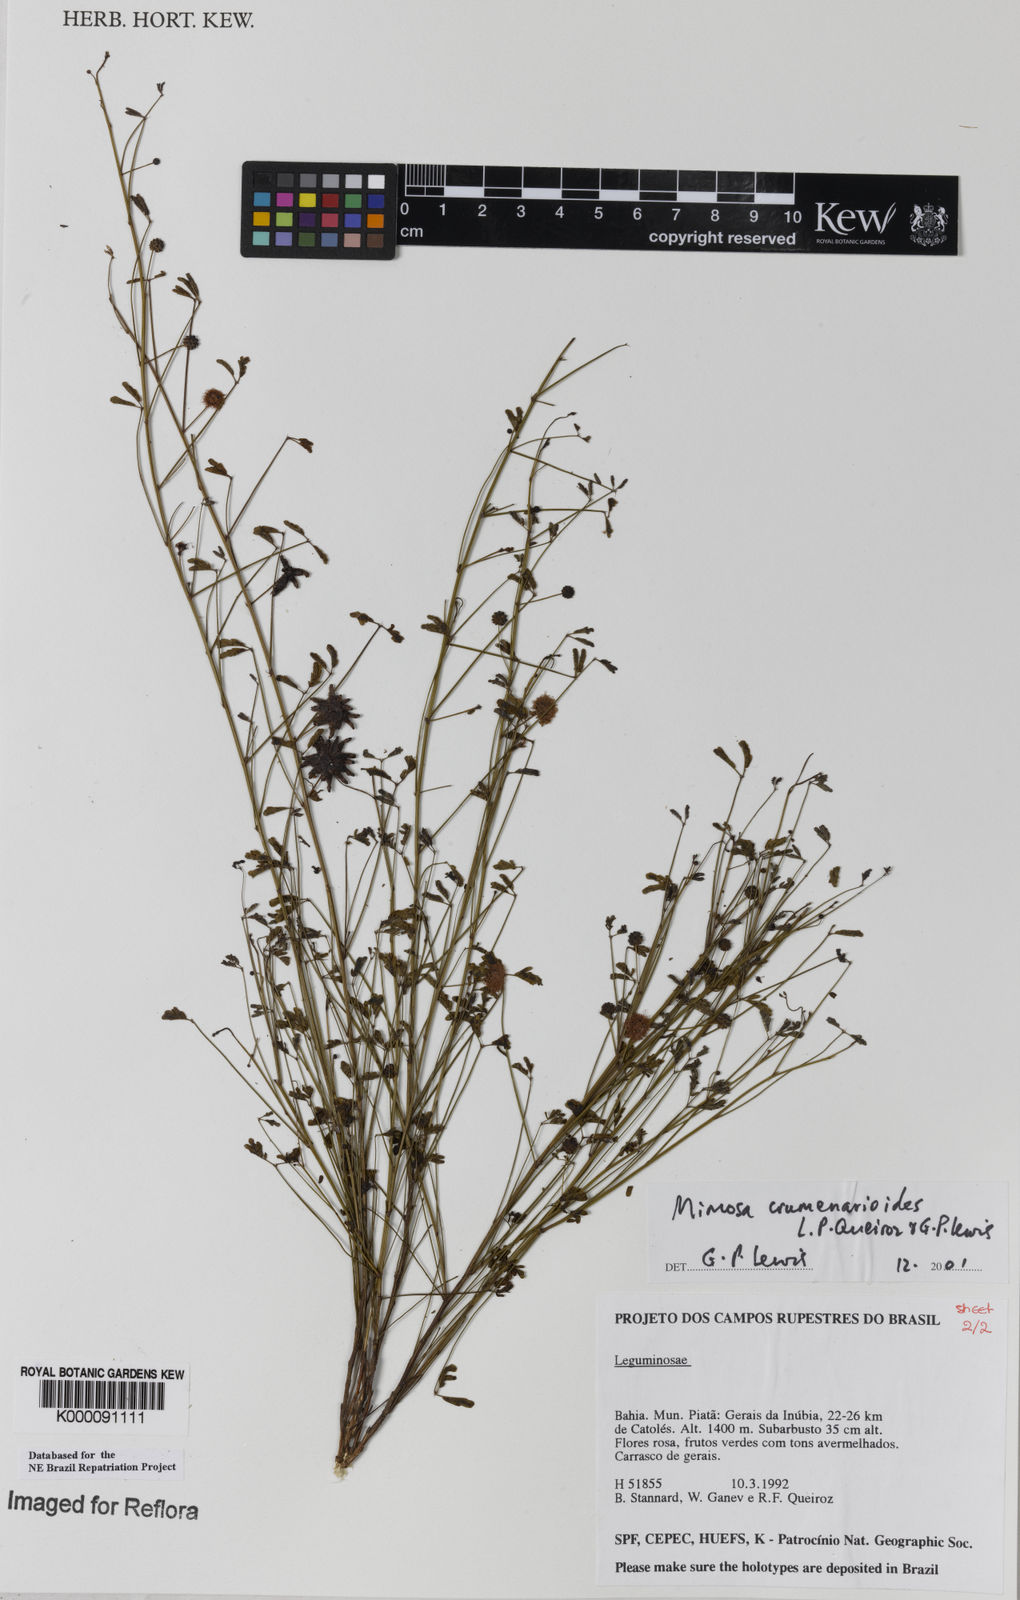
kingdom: Plantae
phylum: Tracheophyta
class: Magnoliopsida
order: Fabales
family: Fabaceae
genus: Mimosa
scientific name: Mimosa crumenarioides
